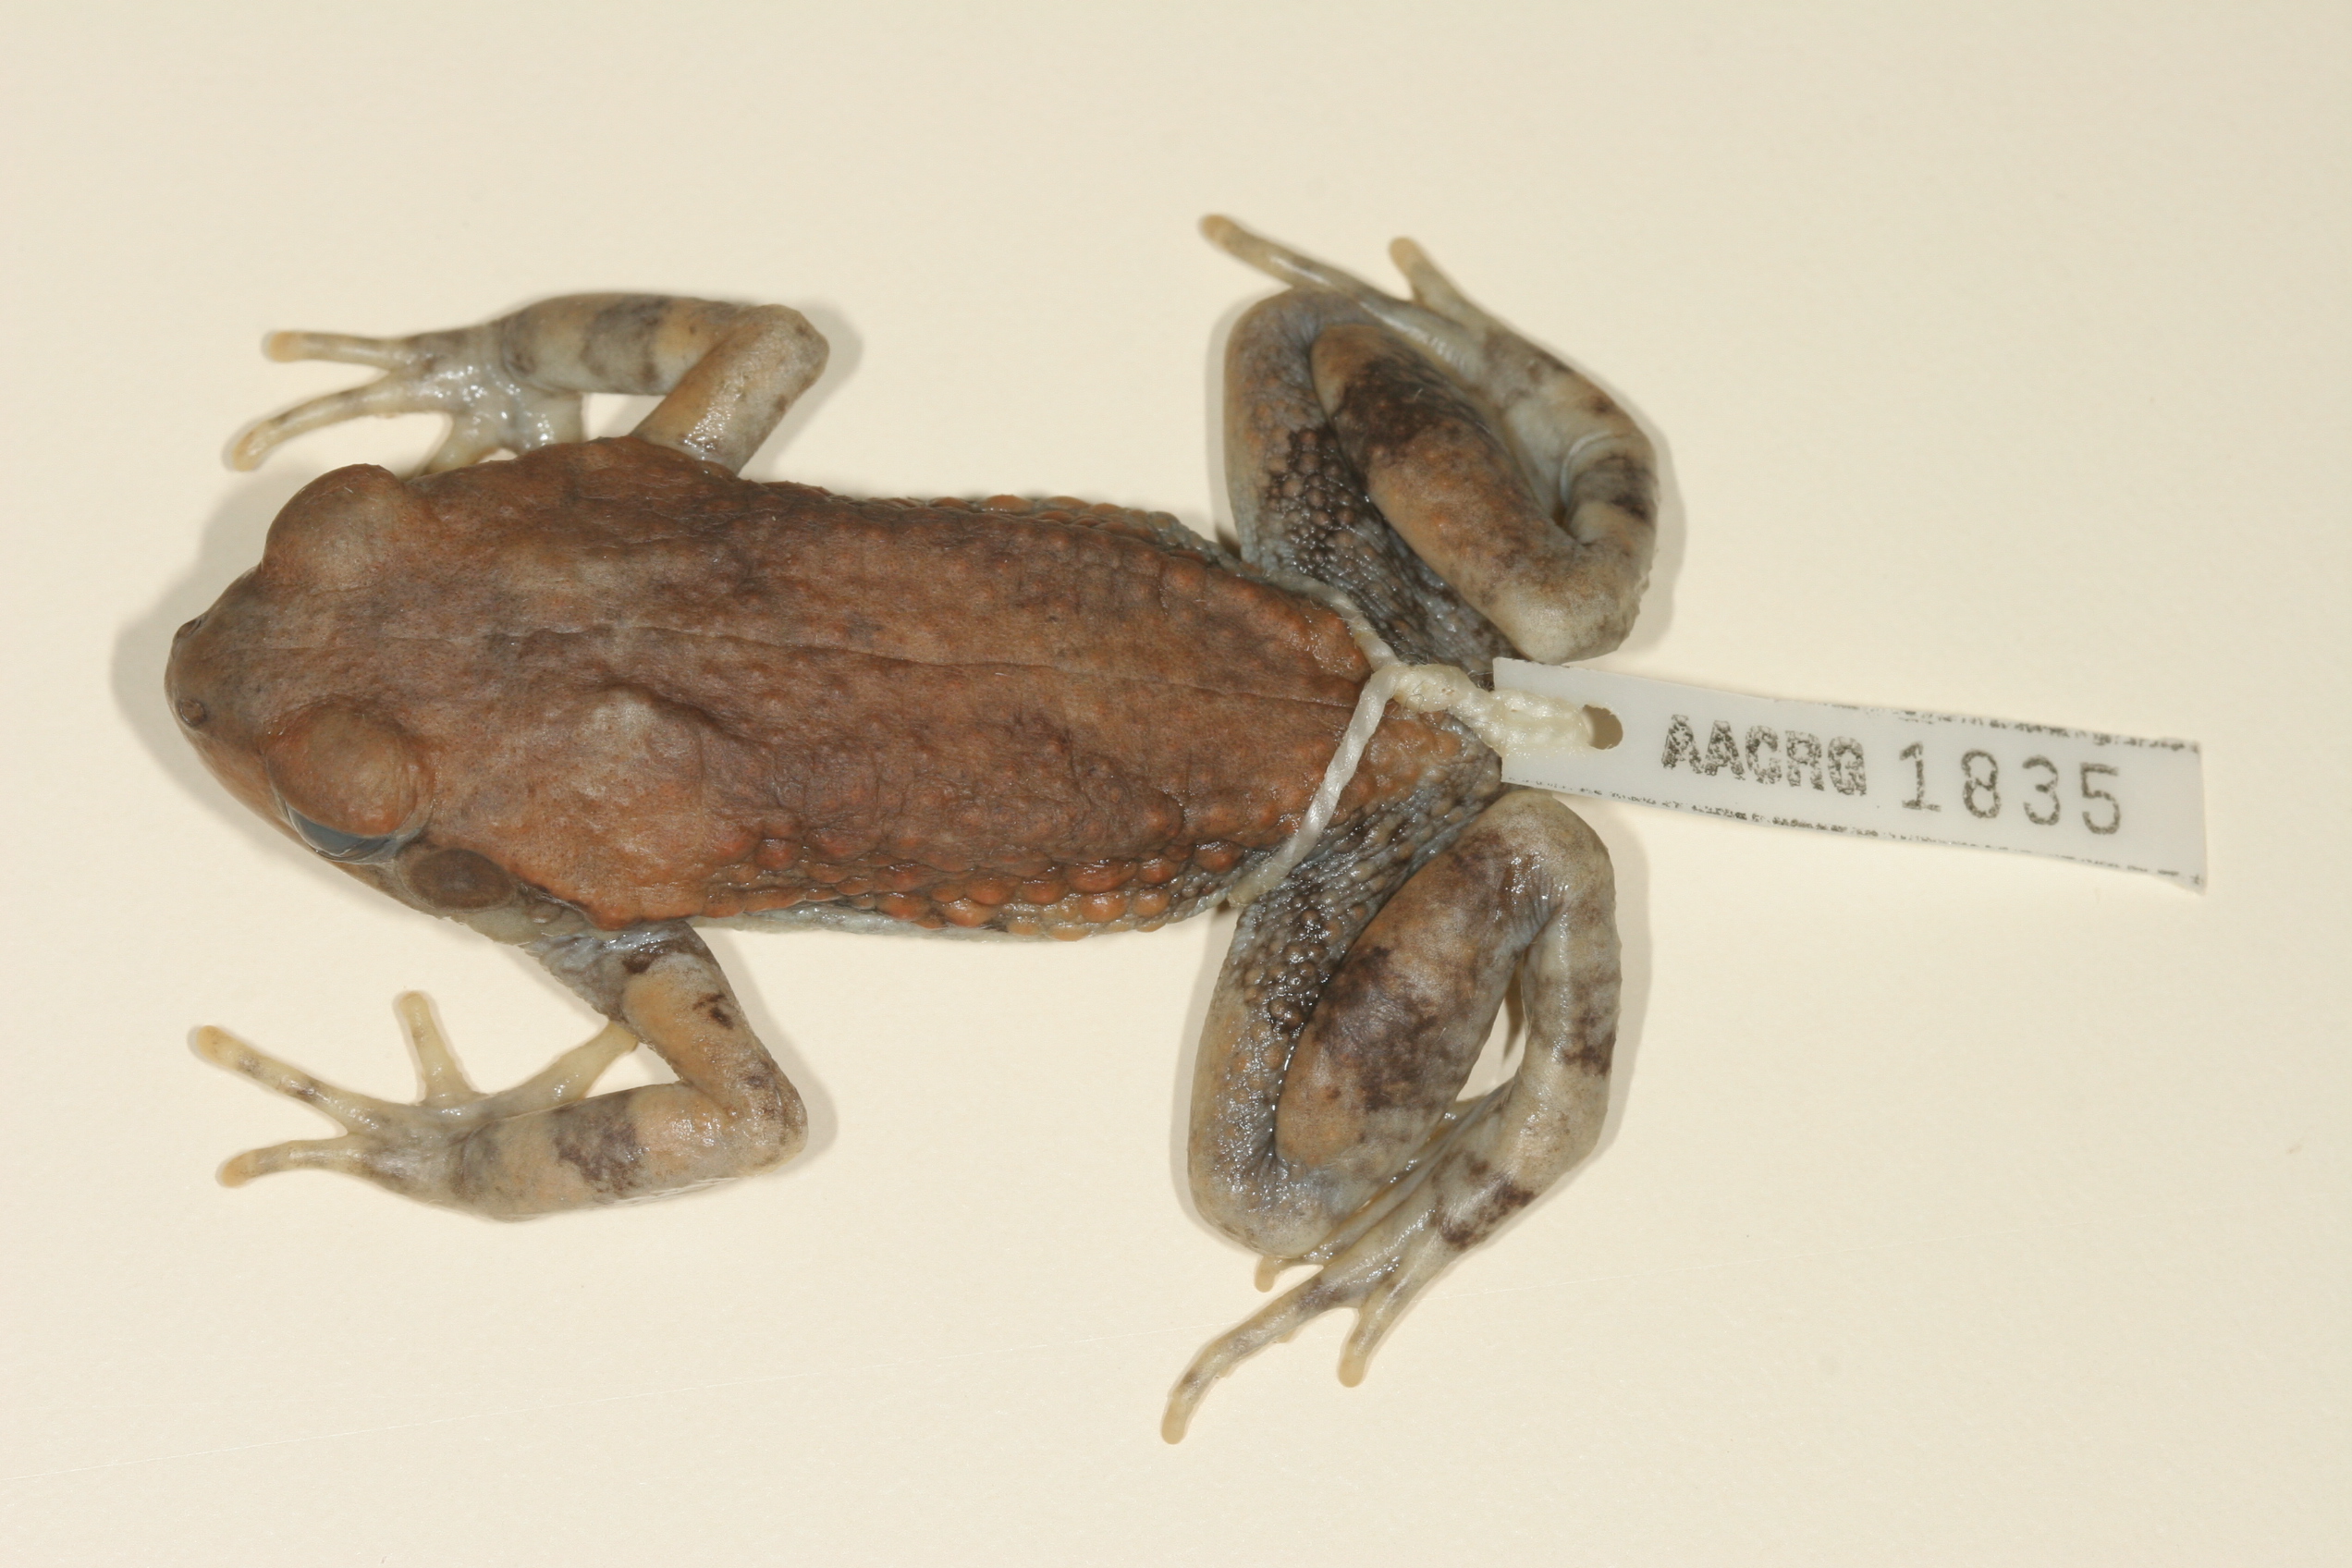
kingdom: Animalia
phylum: Chordata
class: Amphibia
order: Anura
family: Bufonidae
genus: Schismaderma
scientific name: Schismaderma carens
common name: African split-skin toad
